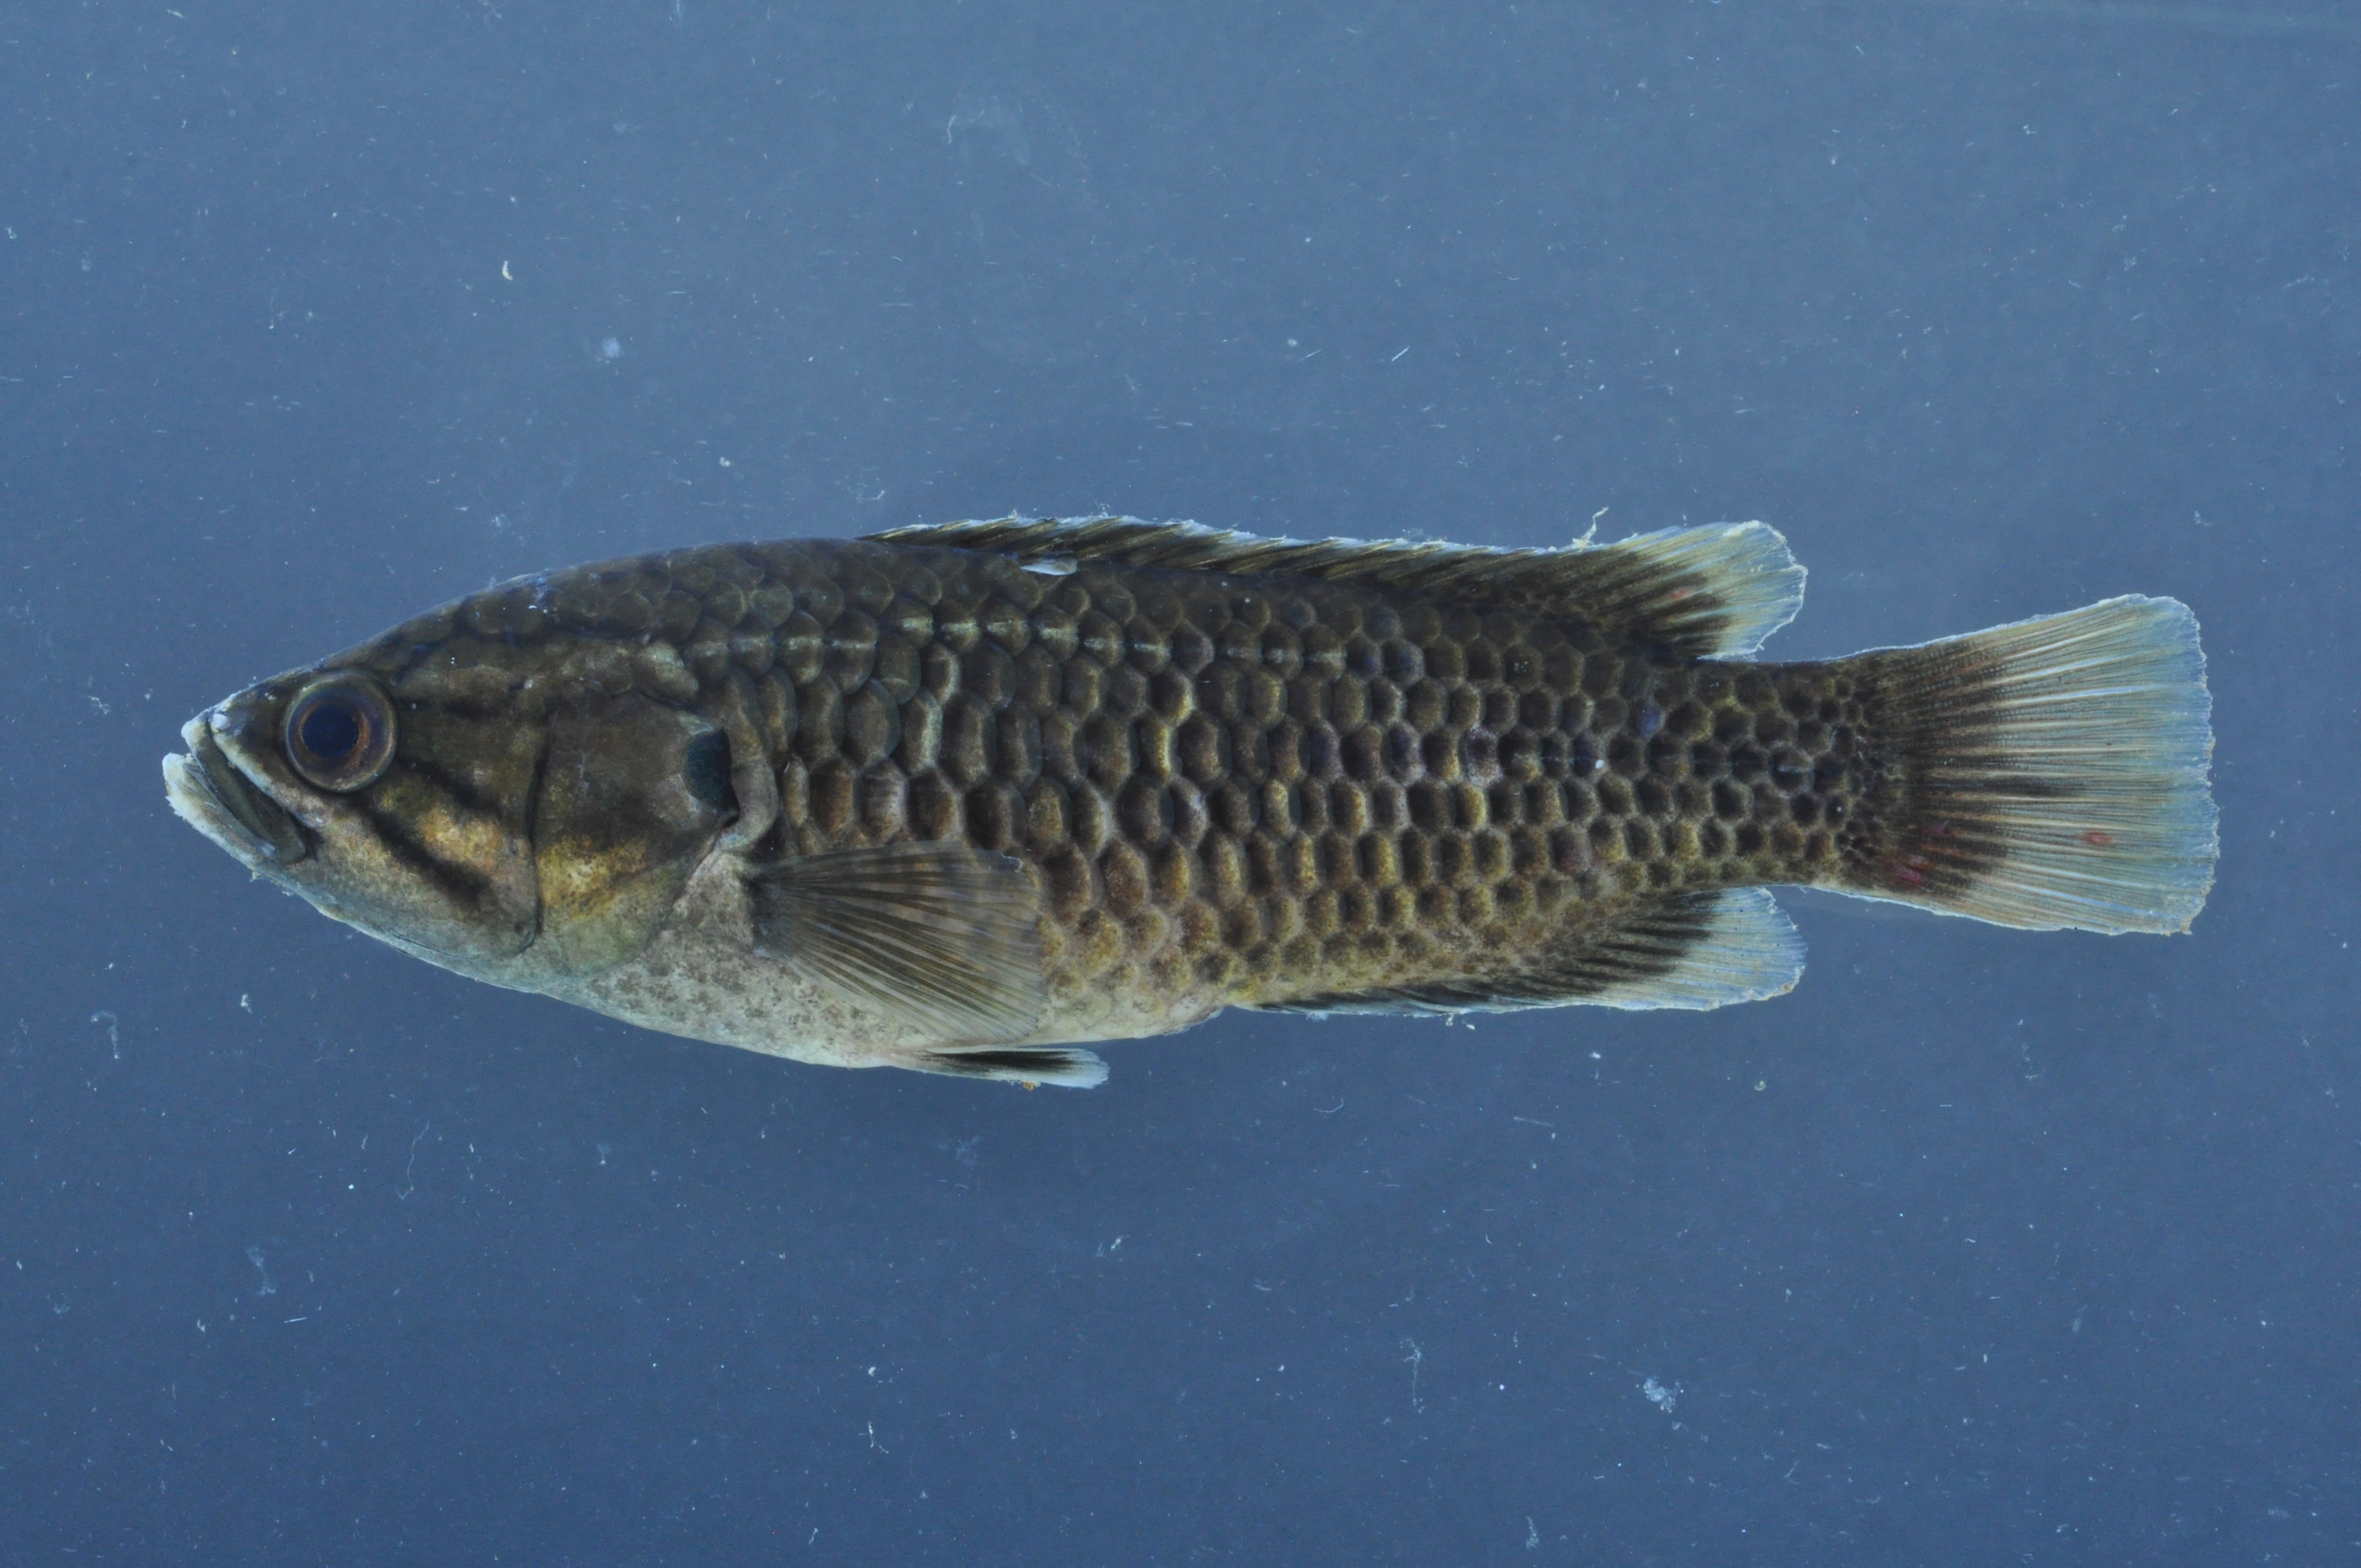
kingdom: Animalia
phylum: Chordata
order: Perciformes
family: Anabantidae
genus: Sandelia
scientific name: Sandelia capensis
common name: Cape kurper
